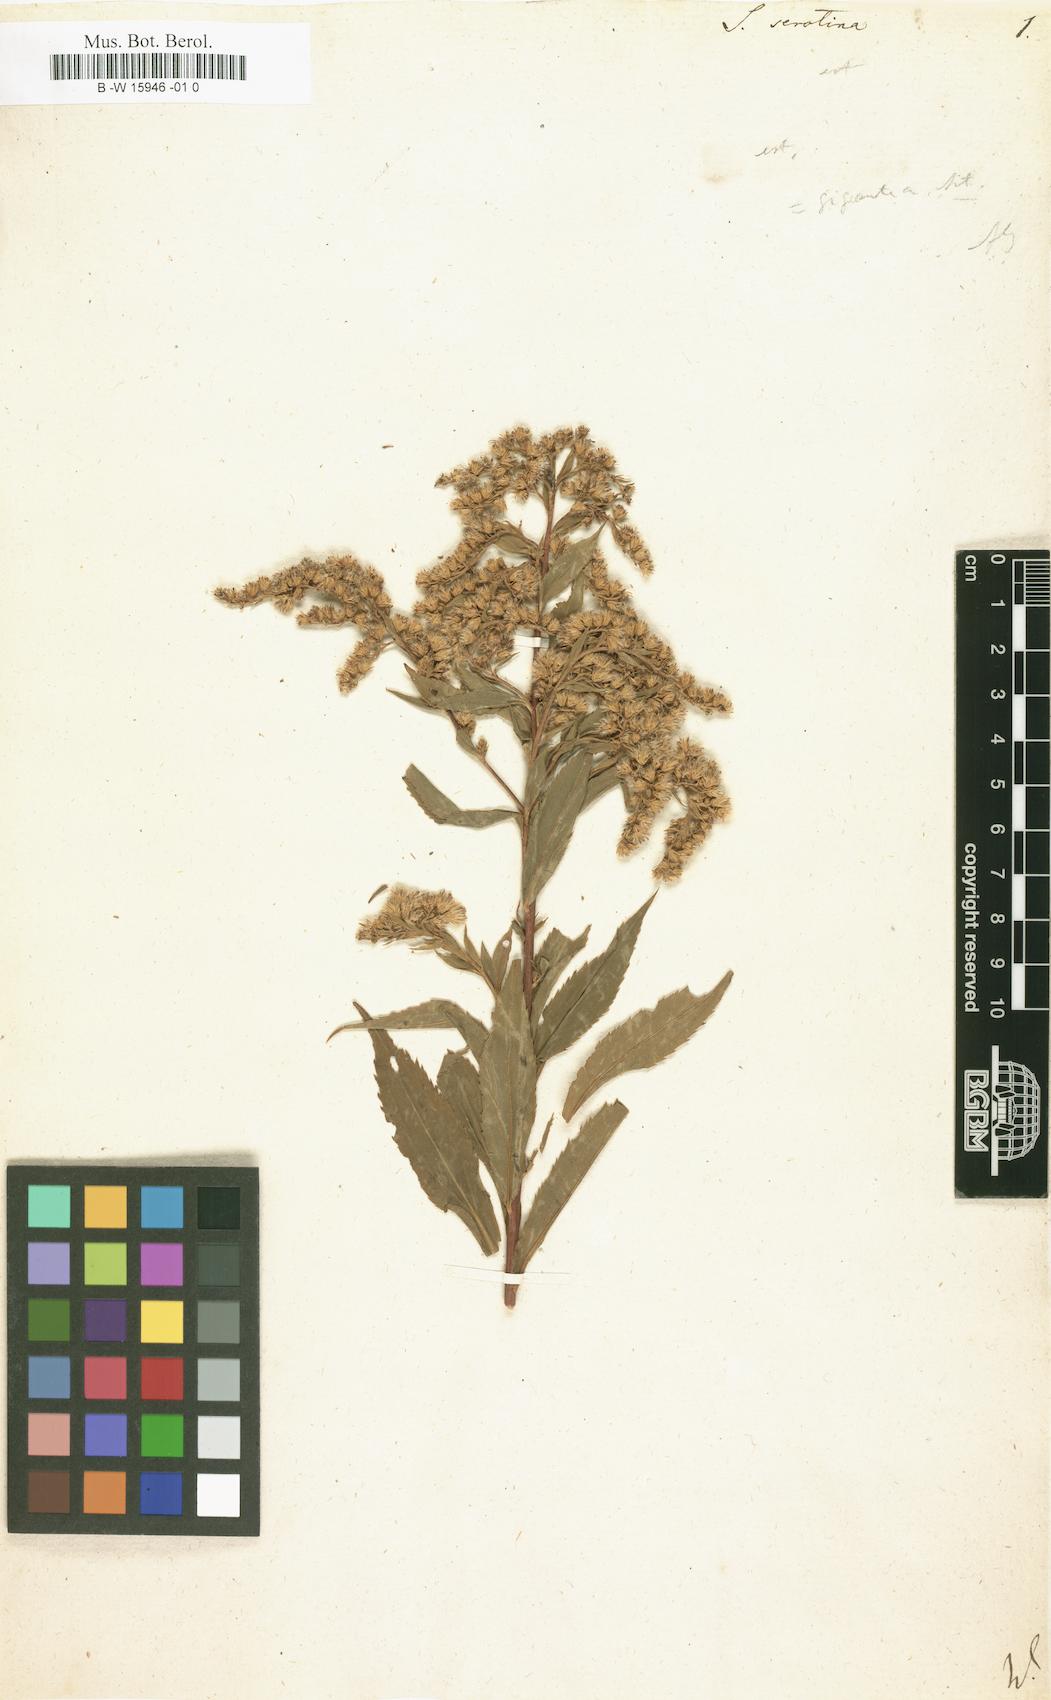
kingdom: Plantae
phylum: Tracheophyta
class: Magnoliopsida
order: Asterales
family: Asteraceae
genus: Solidago
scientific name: Solidago serotina
